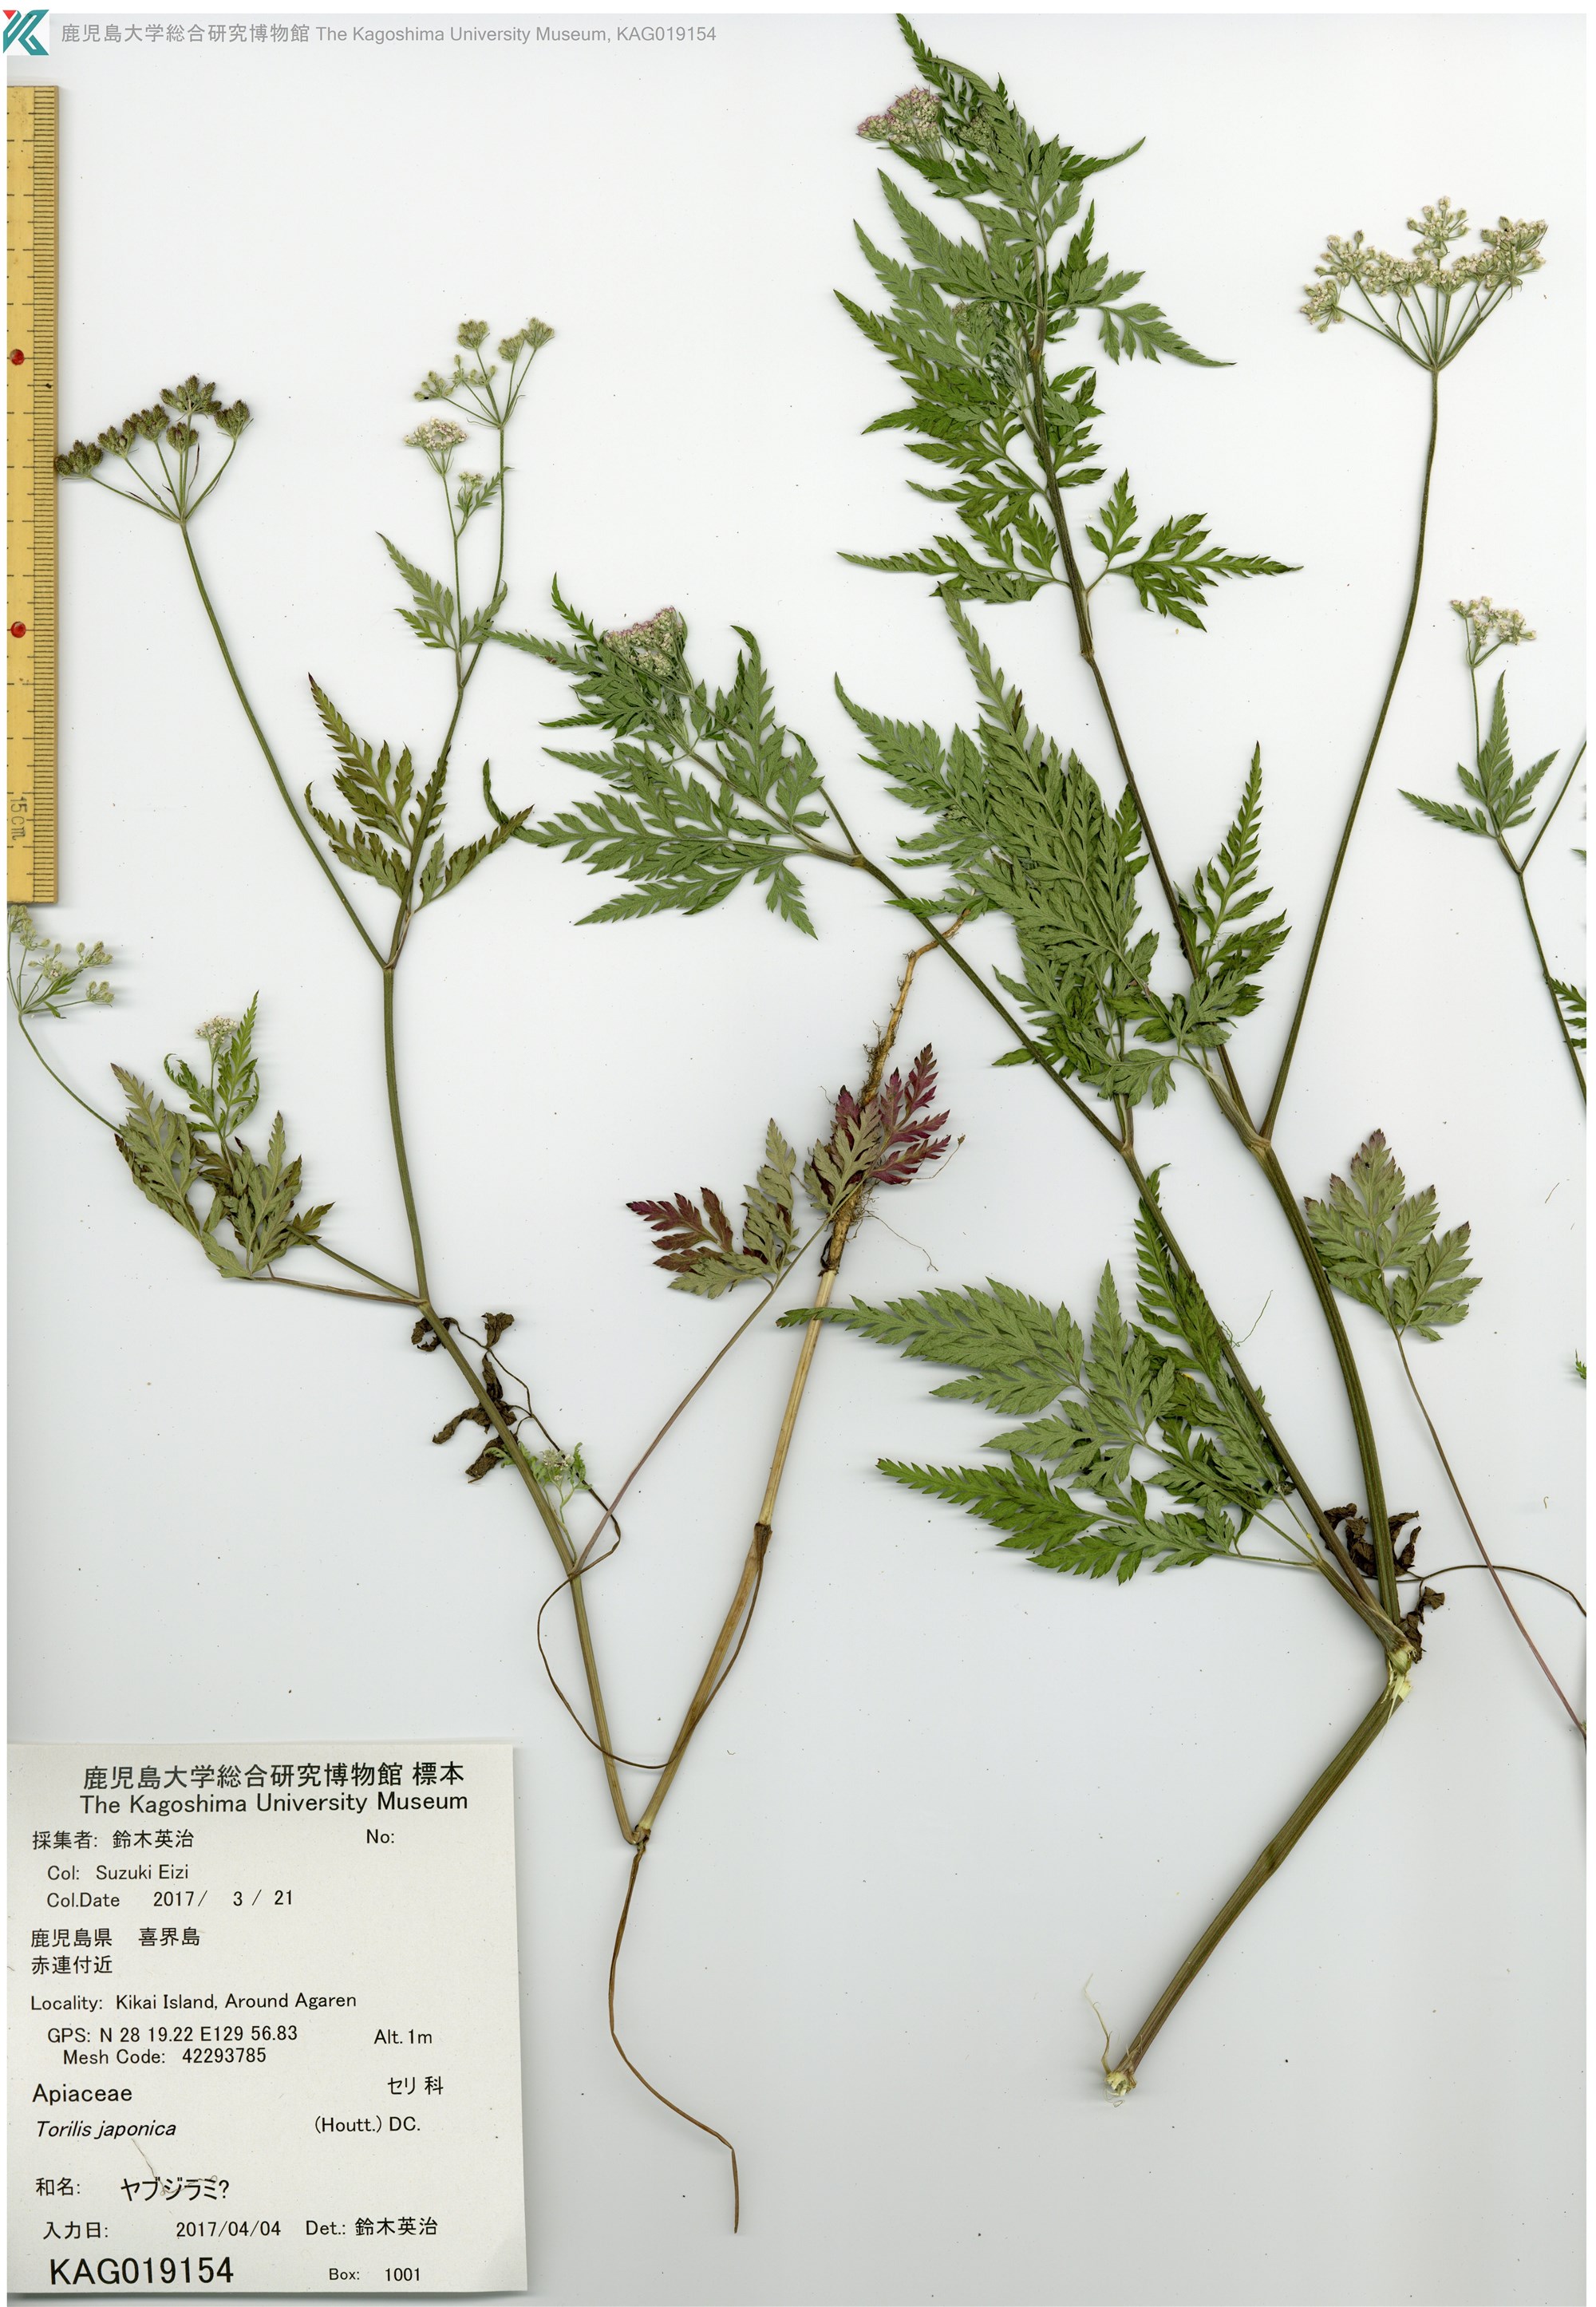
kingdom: Plantae
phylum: Tracheophyta
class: Magnoliopsida
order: Apiales
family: Apiaceae
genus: Torilis
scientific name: Torilis scabra
